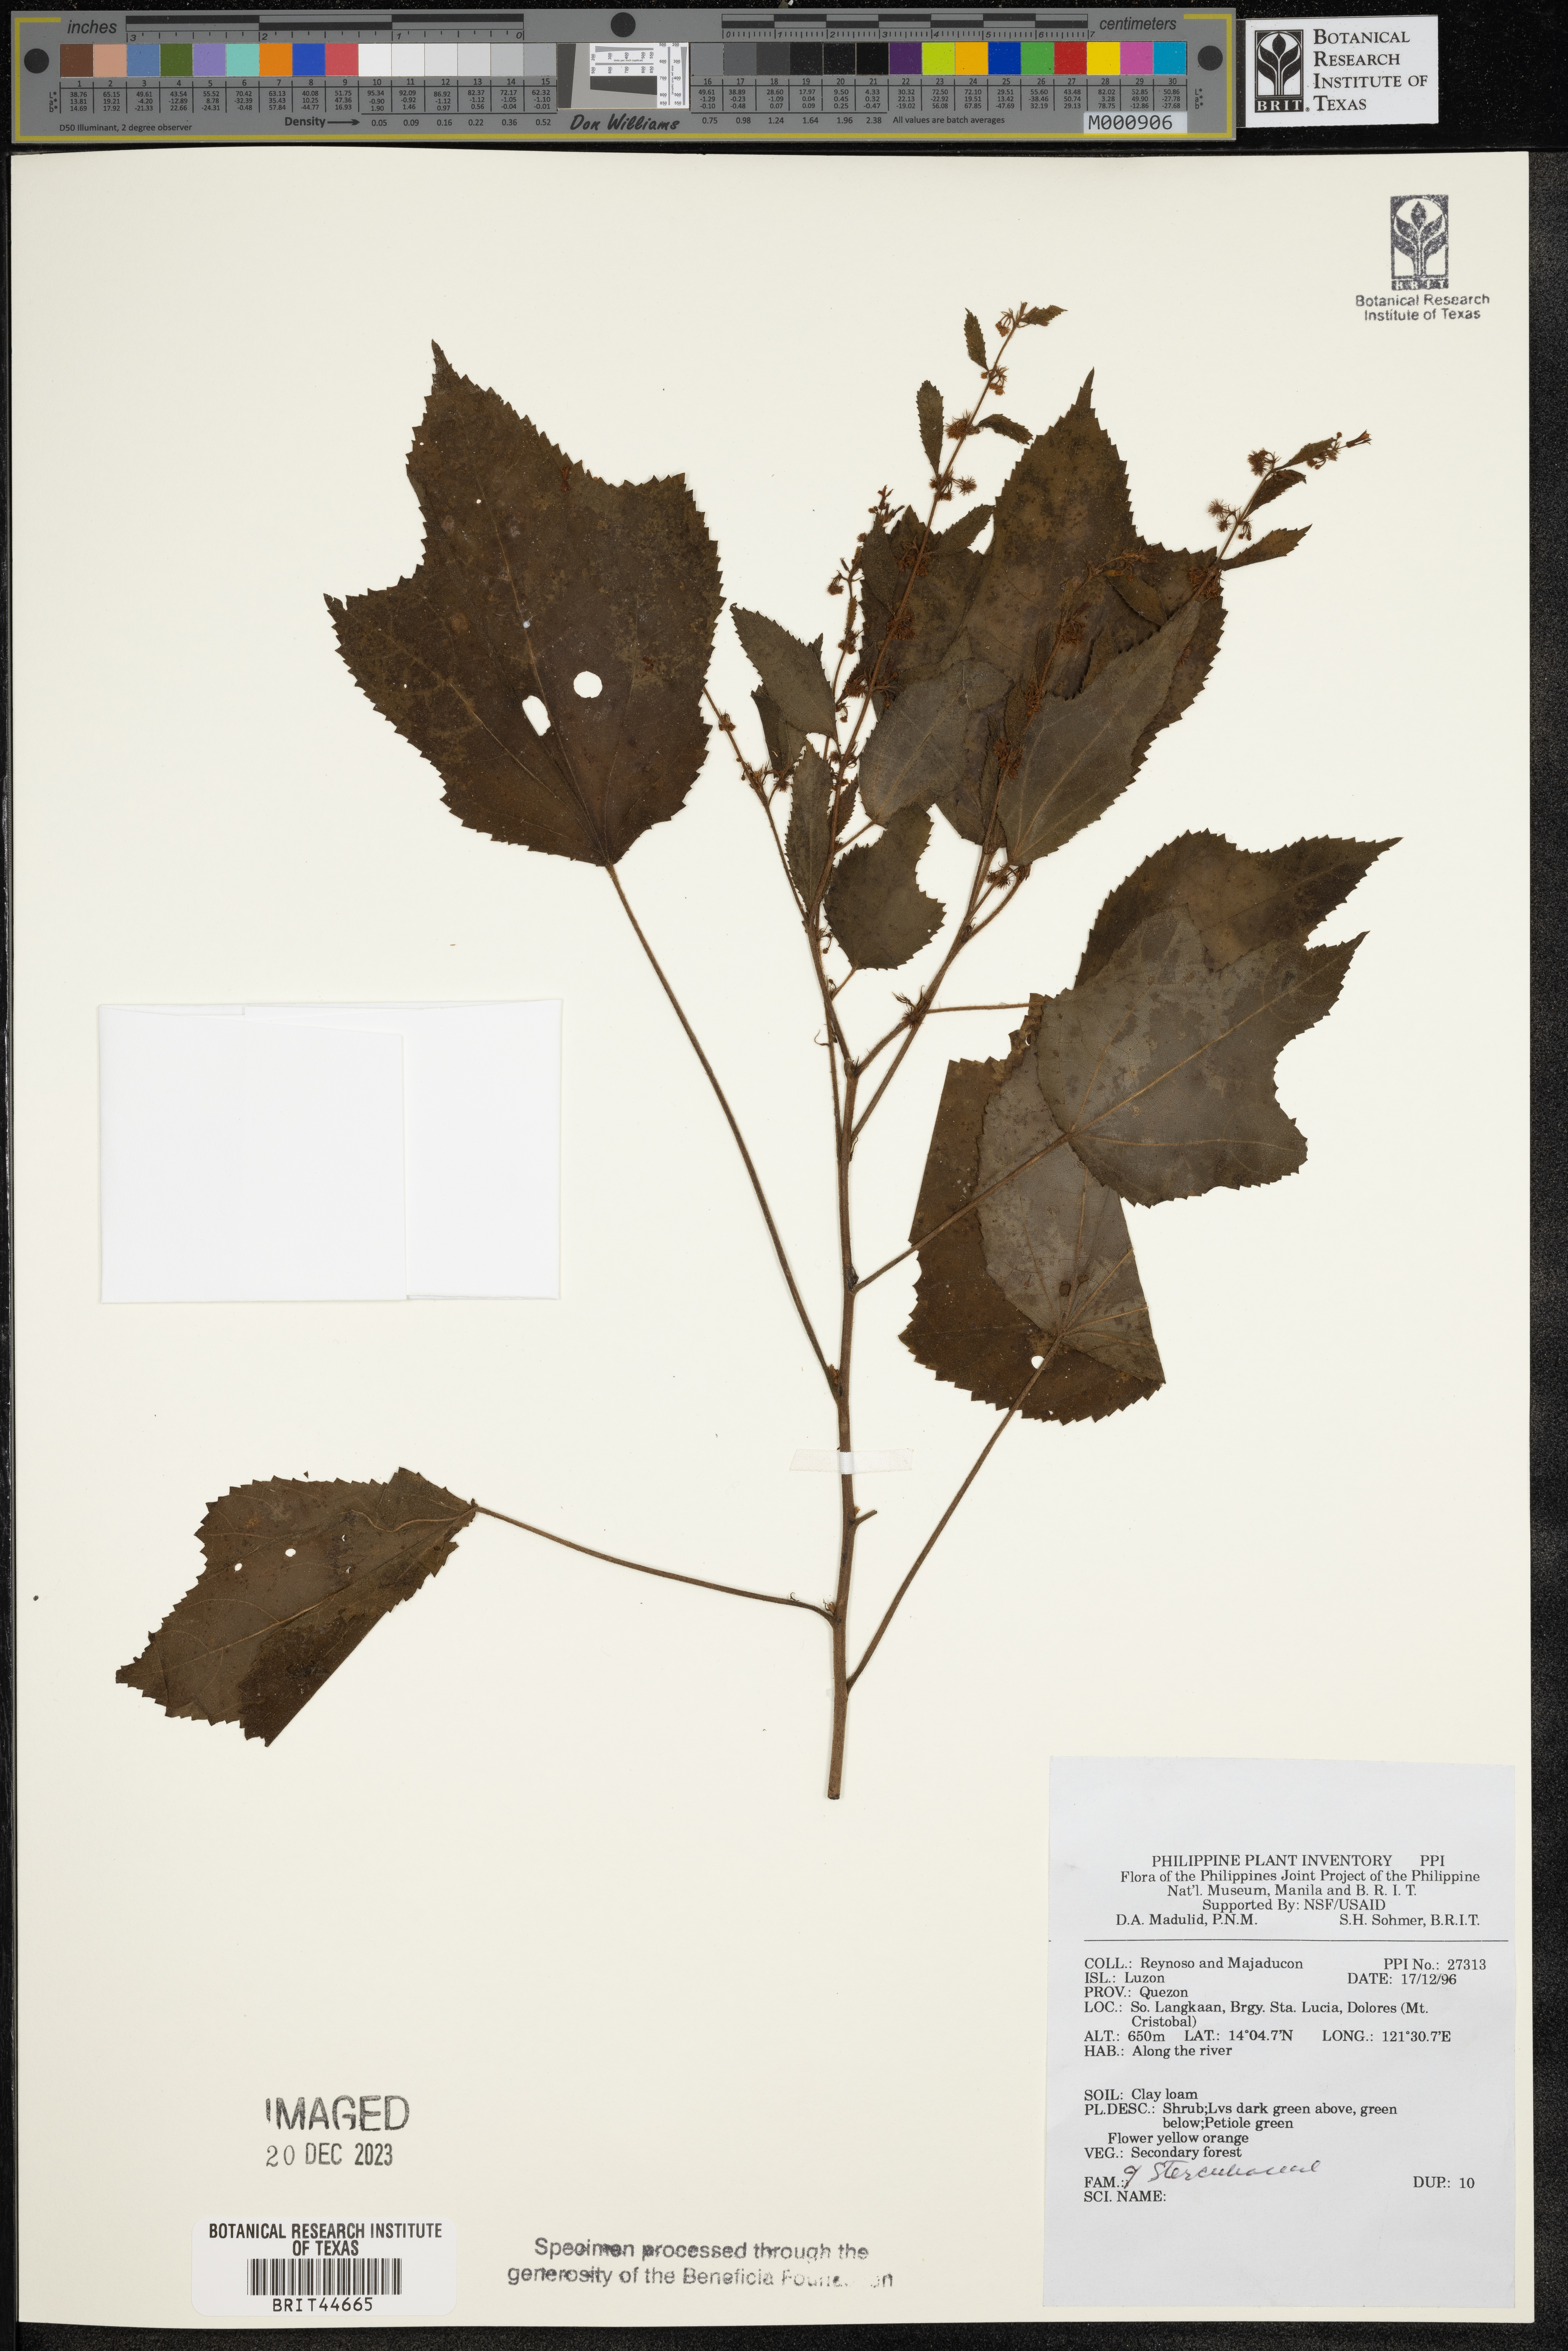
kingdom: Plantae
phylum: Tracheophyta
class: Magnoliopsida
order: Malvales
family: Sterculiaceae
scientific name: Sterculiaceae
